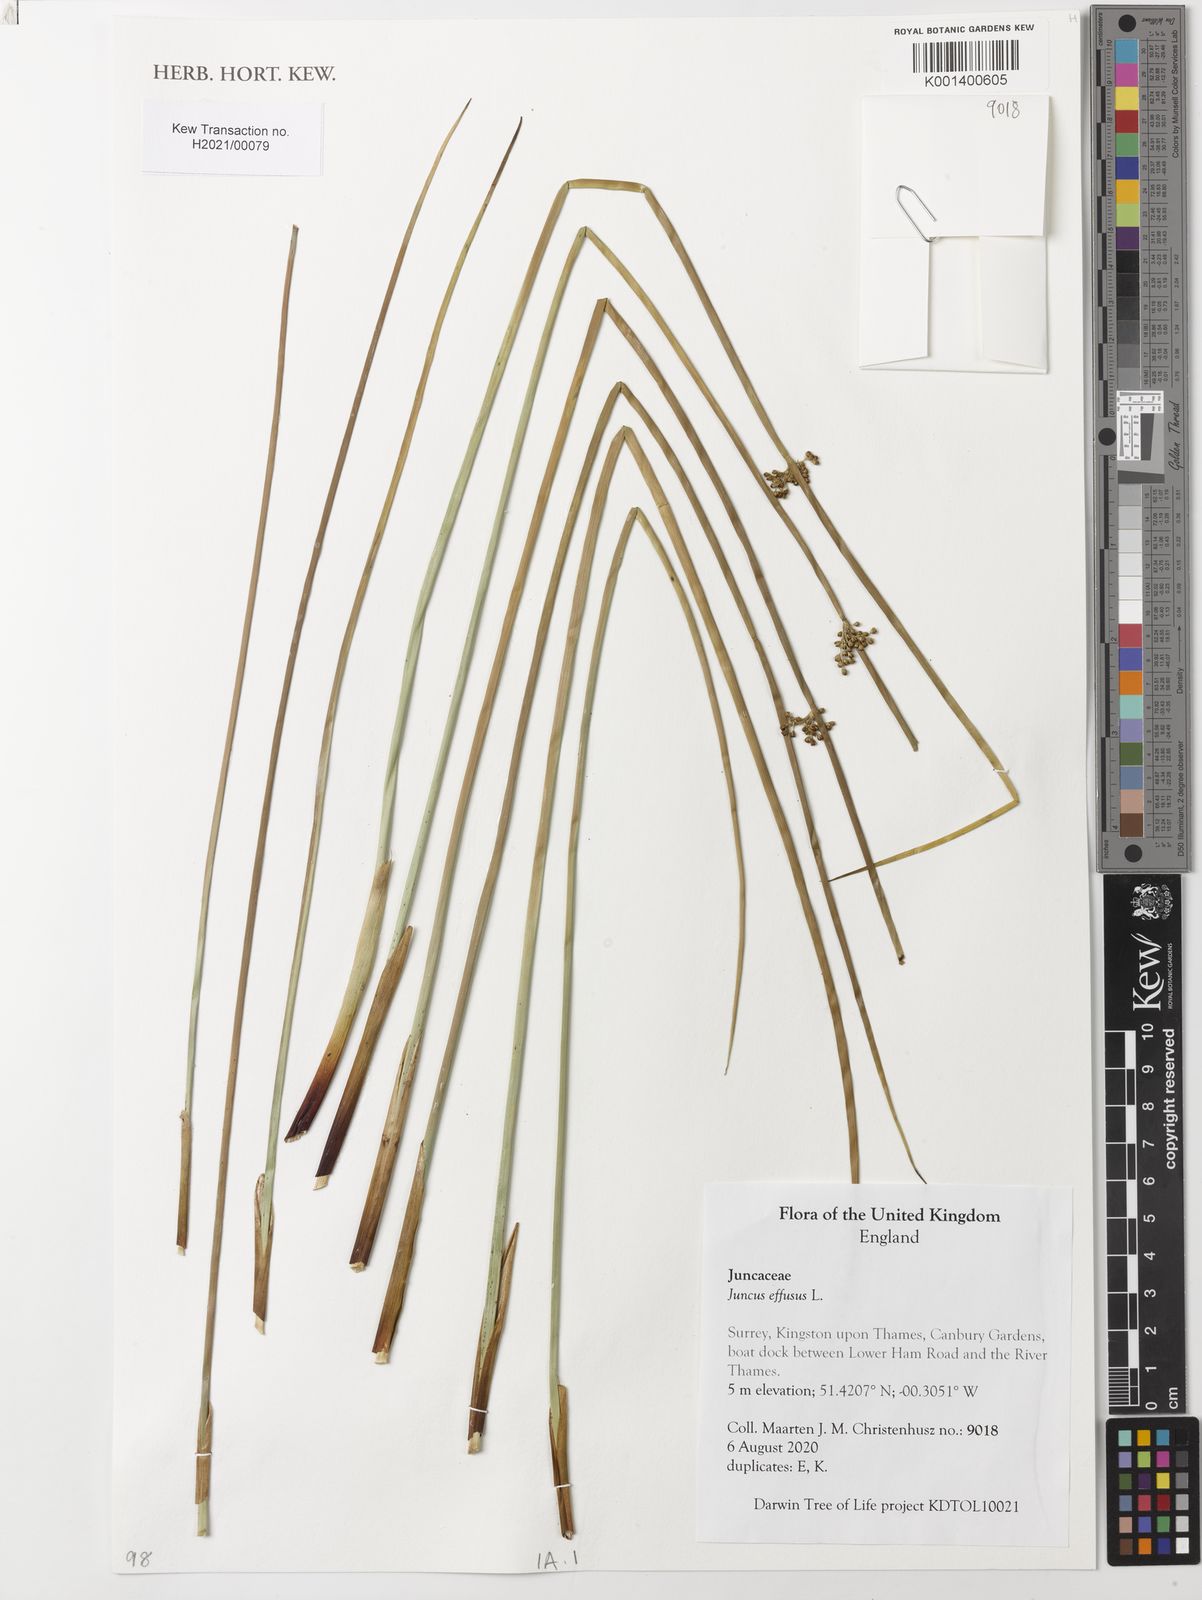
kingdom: Plantae
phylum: Tracheophyta
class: Liliopsida
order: Poales
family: Juncaceae
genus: Juncus
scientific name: Juncus effusus
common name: Soft rush
